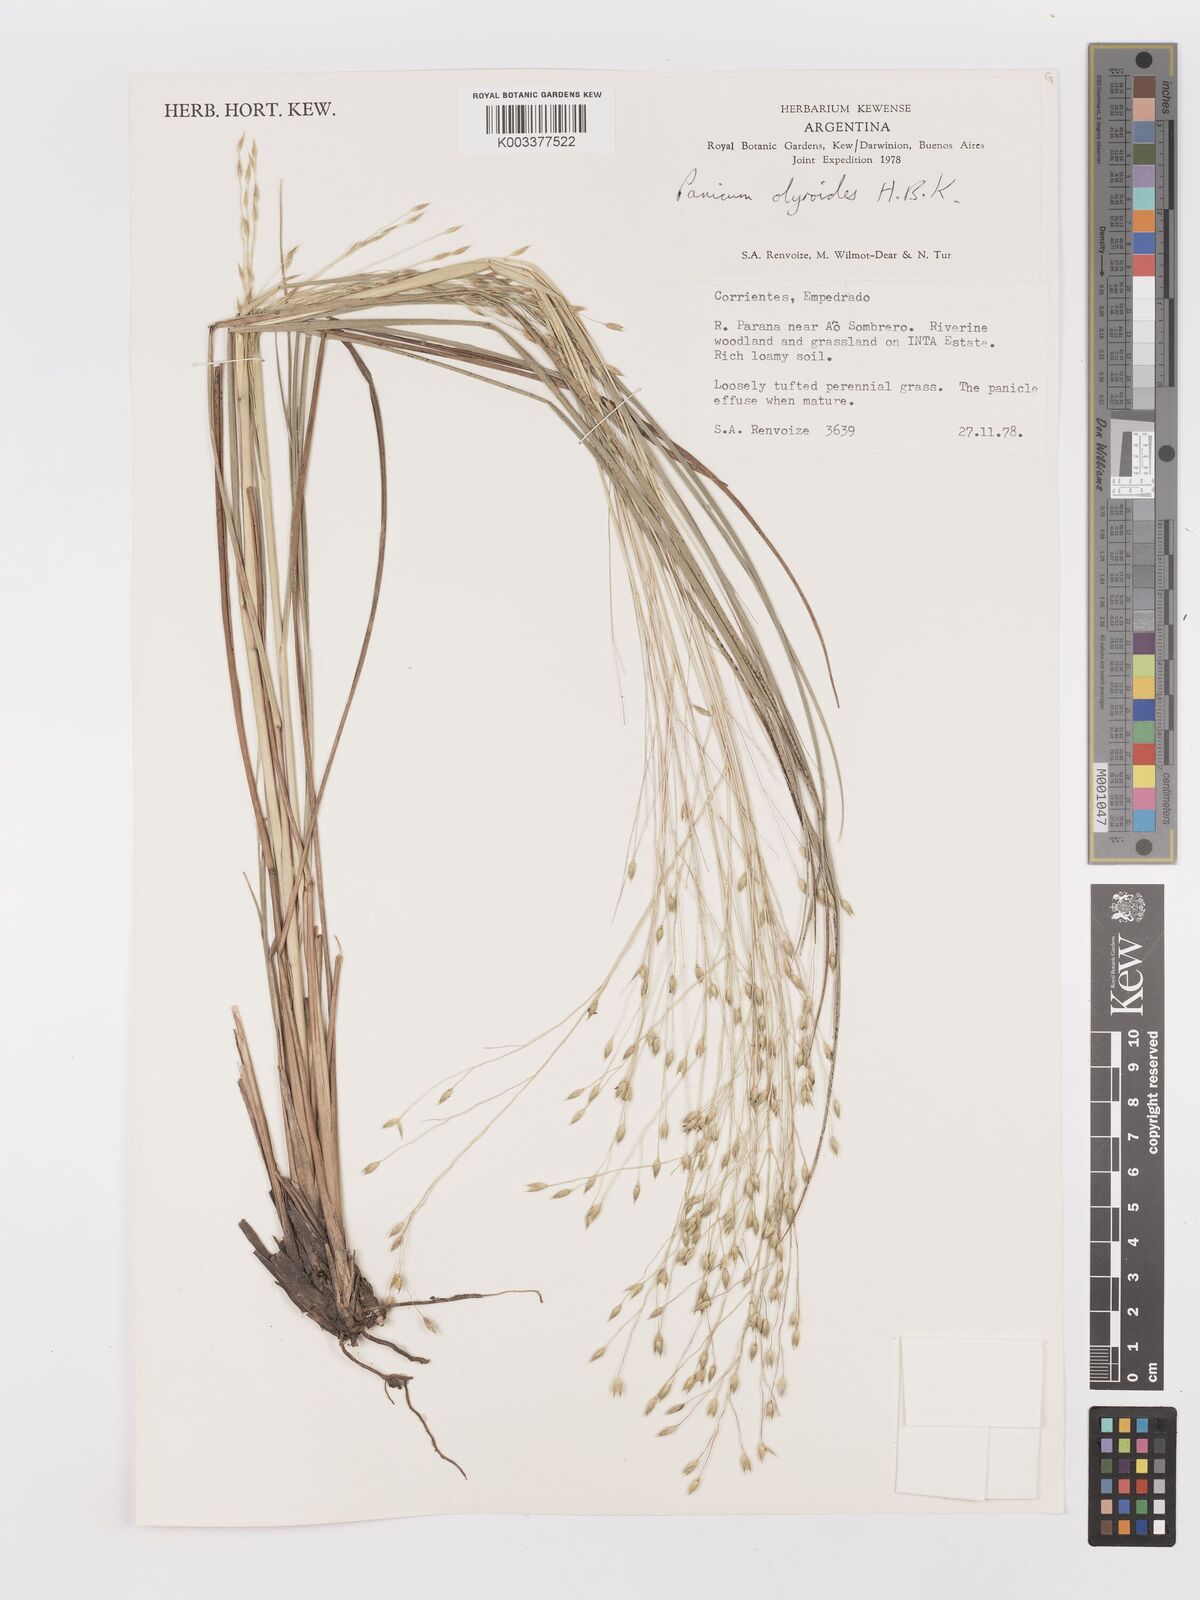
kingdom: Plantae
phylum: Tracheophyta
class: Liliopsida
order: Poales
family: Poaceae
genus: Panicum
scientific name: Panicum olyroides
